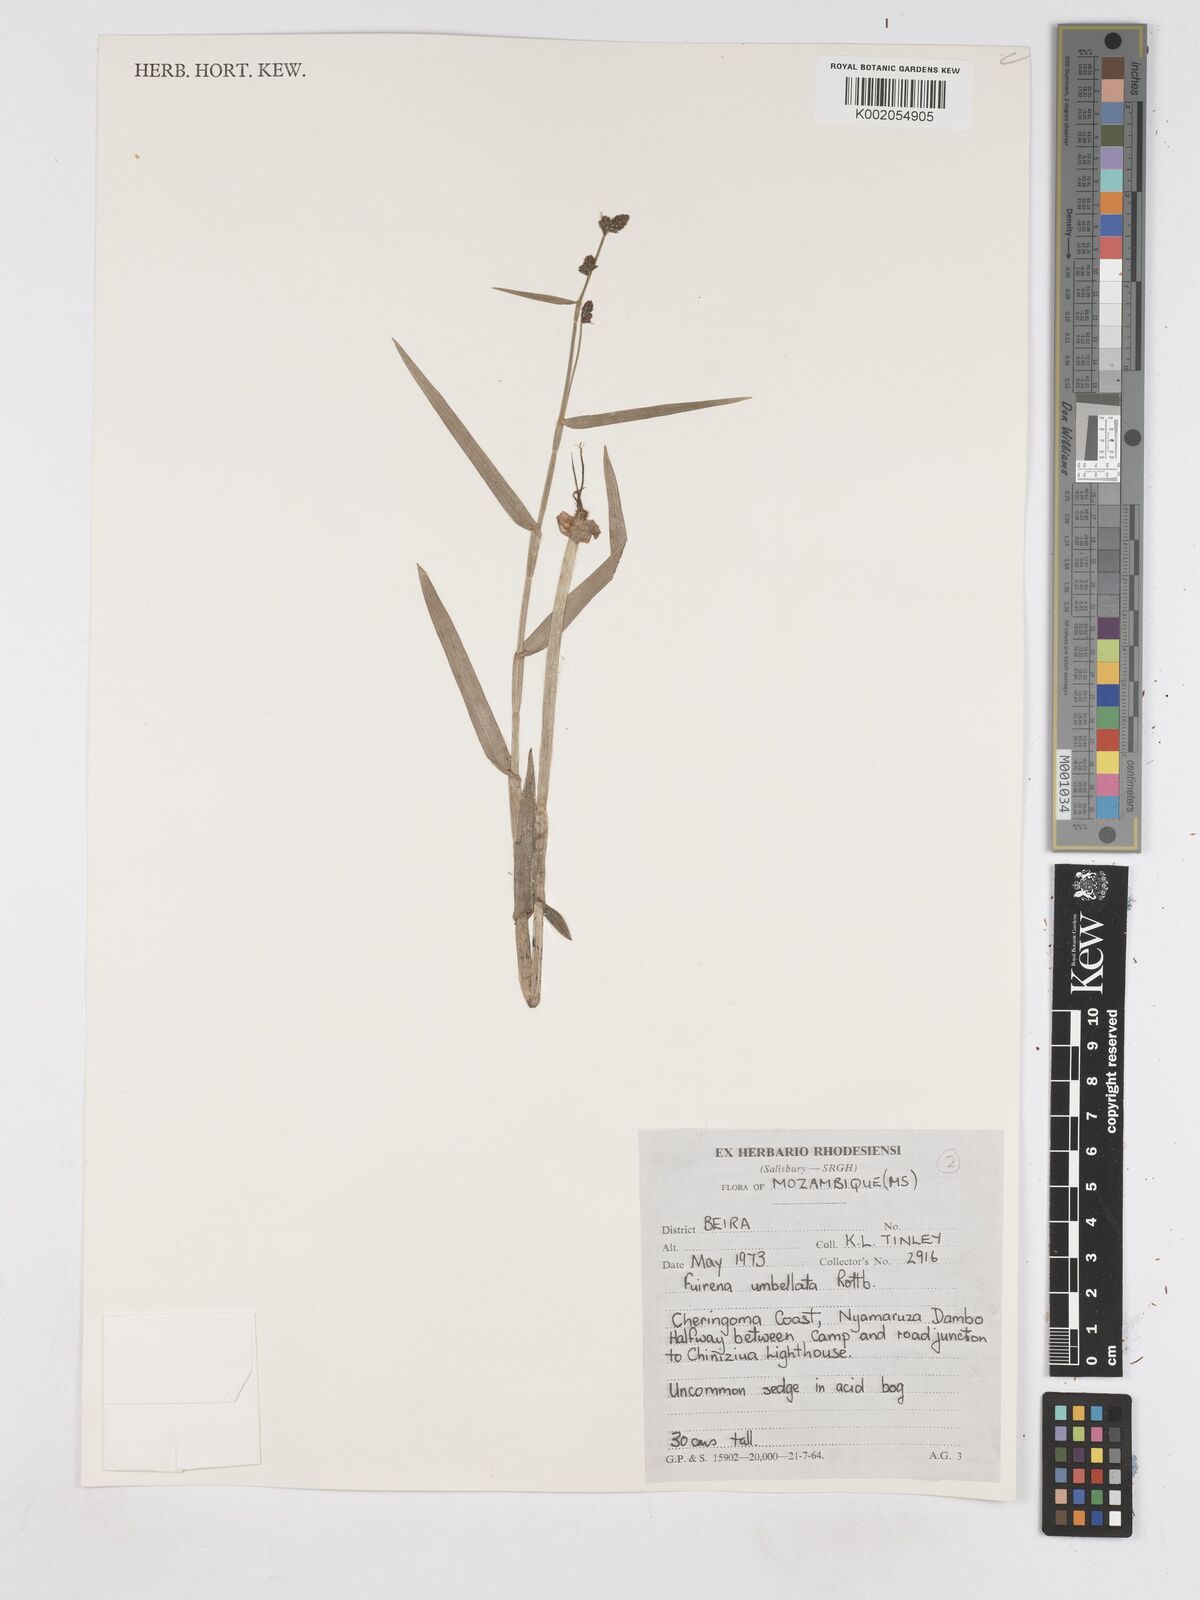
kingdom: Plantae
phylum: Tracheophyta
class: Liliopsida
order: Poales
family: Cyperaceae
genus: Fuirena
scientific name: Fuirena umbellata
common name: Yefen
